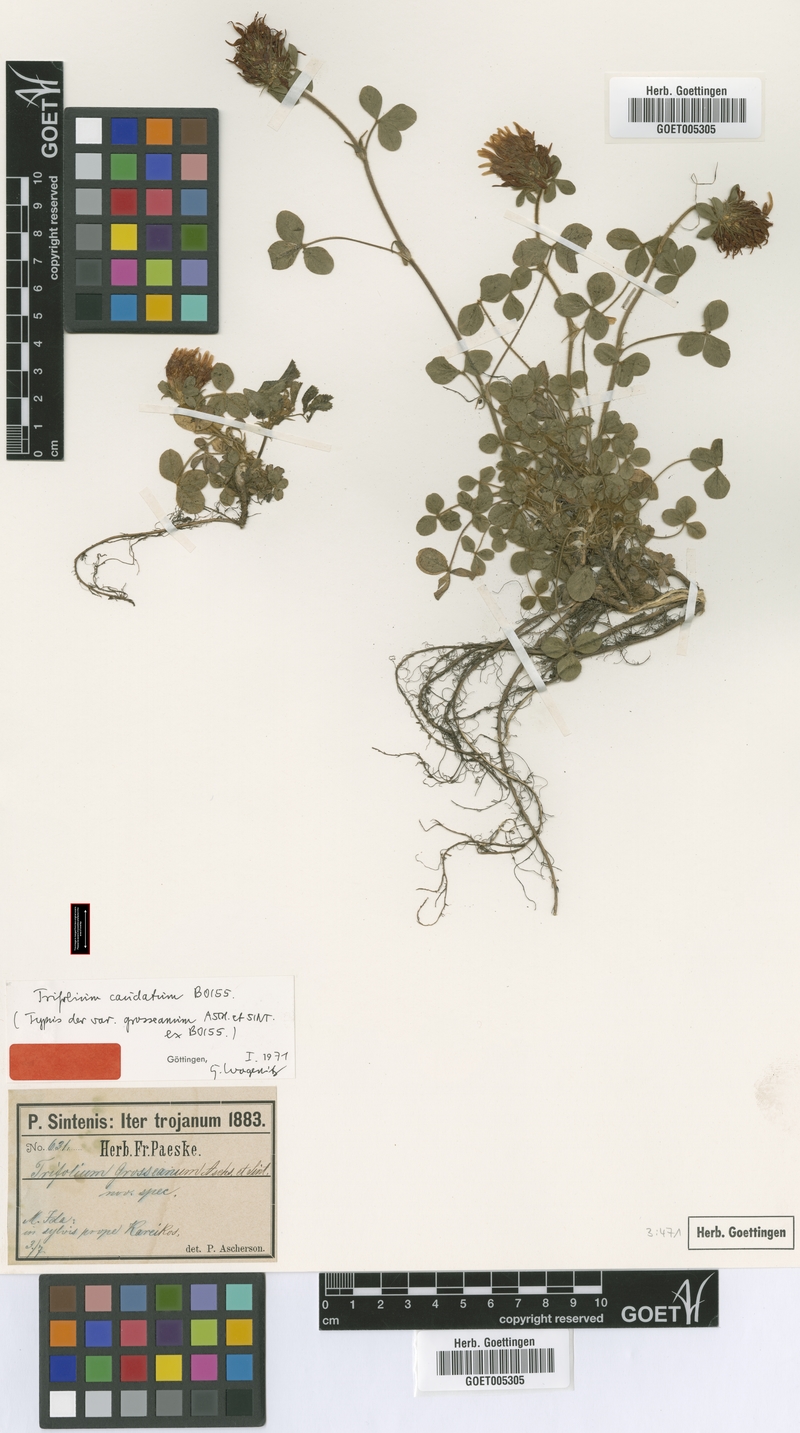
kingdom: Plantae
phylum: Tracheophyta
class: Magnoliopsida
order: Fabales
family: Fabaceae
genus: Trifolium
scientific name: Trifolium caudatum
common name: Tailed clover
